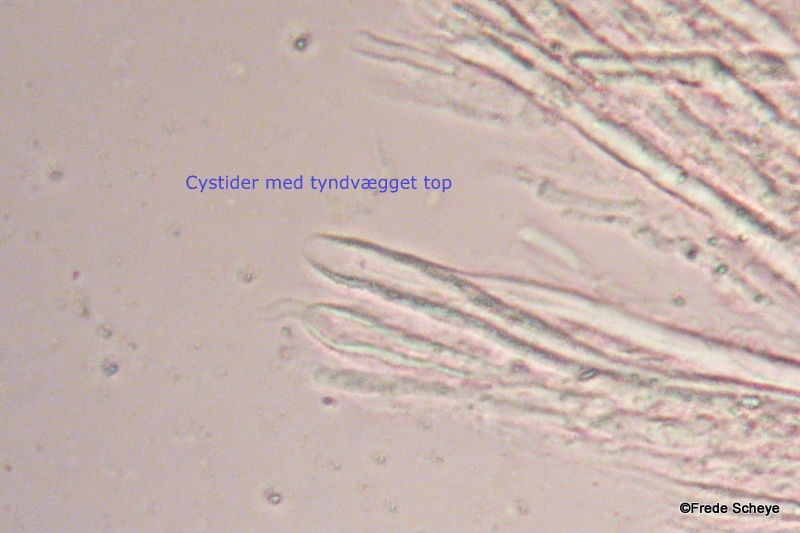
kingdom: Fungi
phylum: Basidiomycota
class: Agaricomycetes
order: Russulales
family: Stereaceae
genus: Stereum
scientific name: Stereum subtomentosum
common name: smuk lædersvamp
